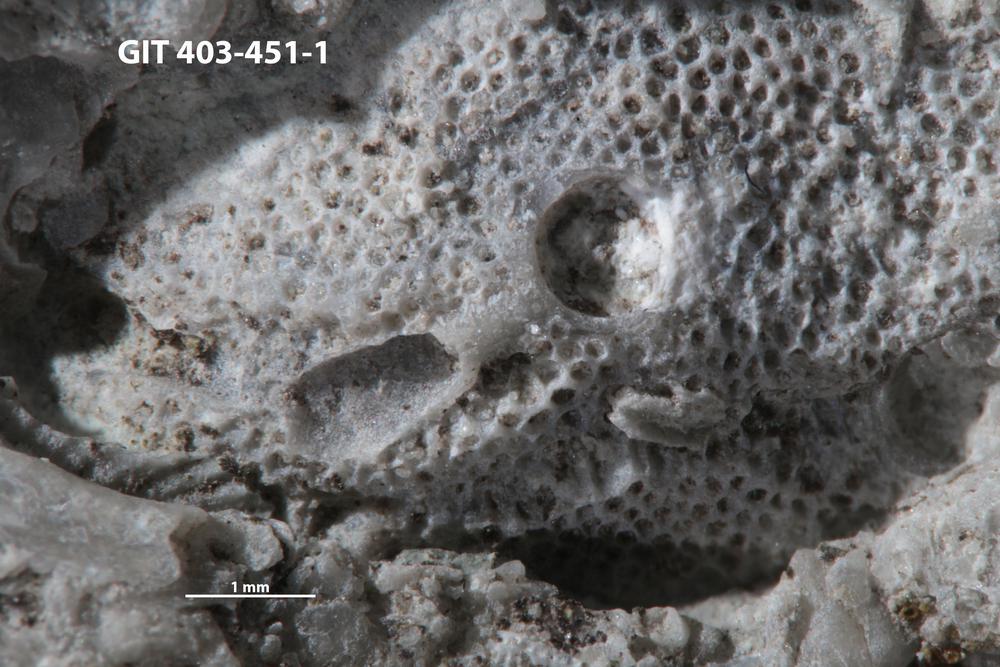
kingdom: Animalia
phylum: Cnidaria
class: Hydrozoa
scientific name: Hydrozoa
